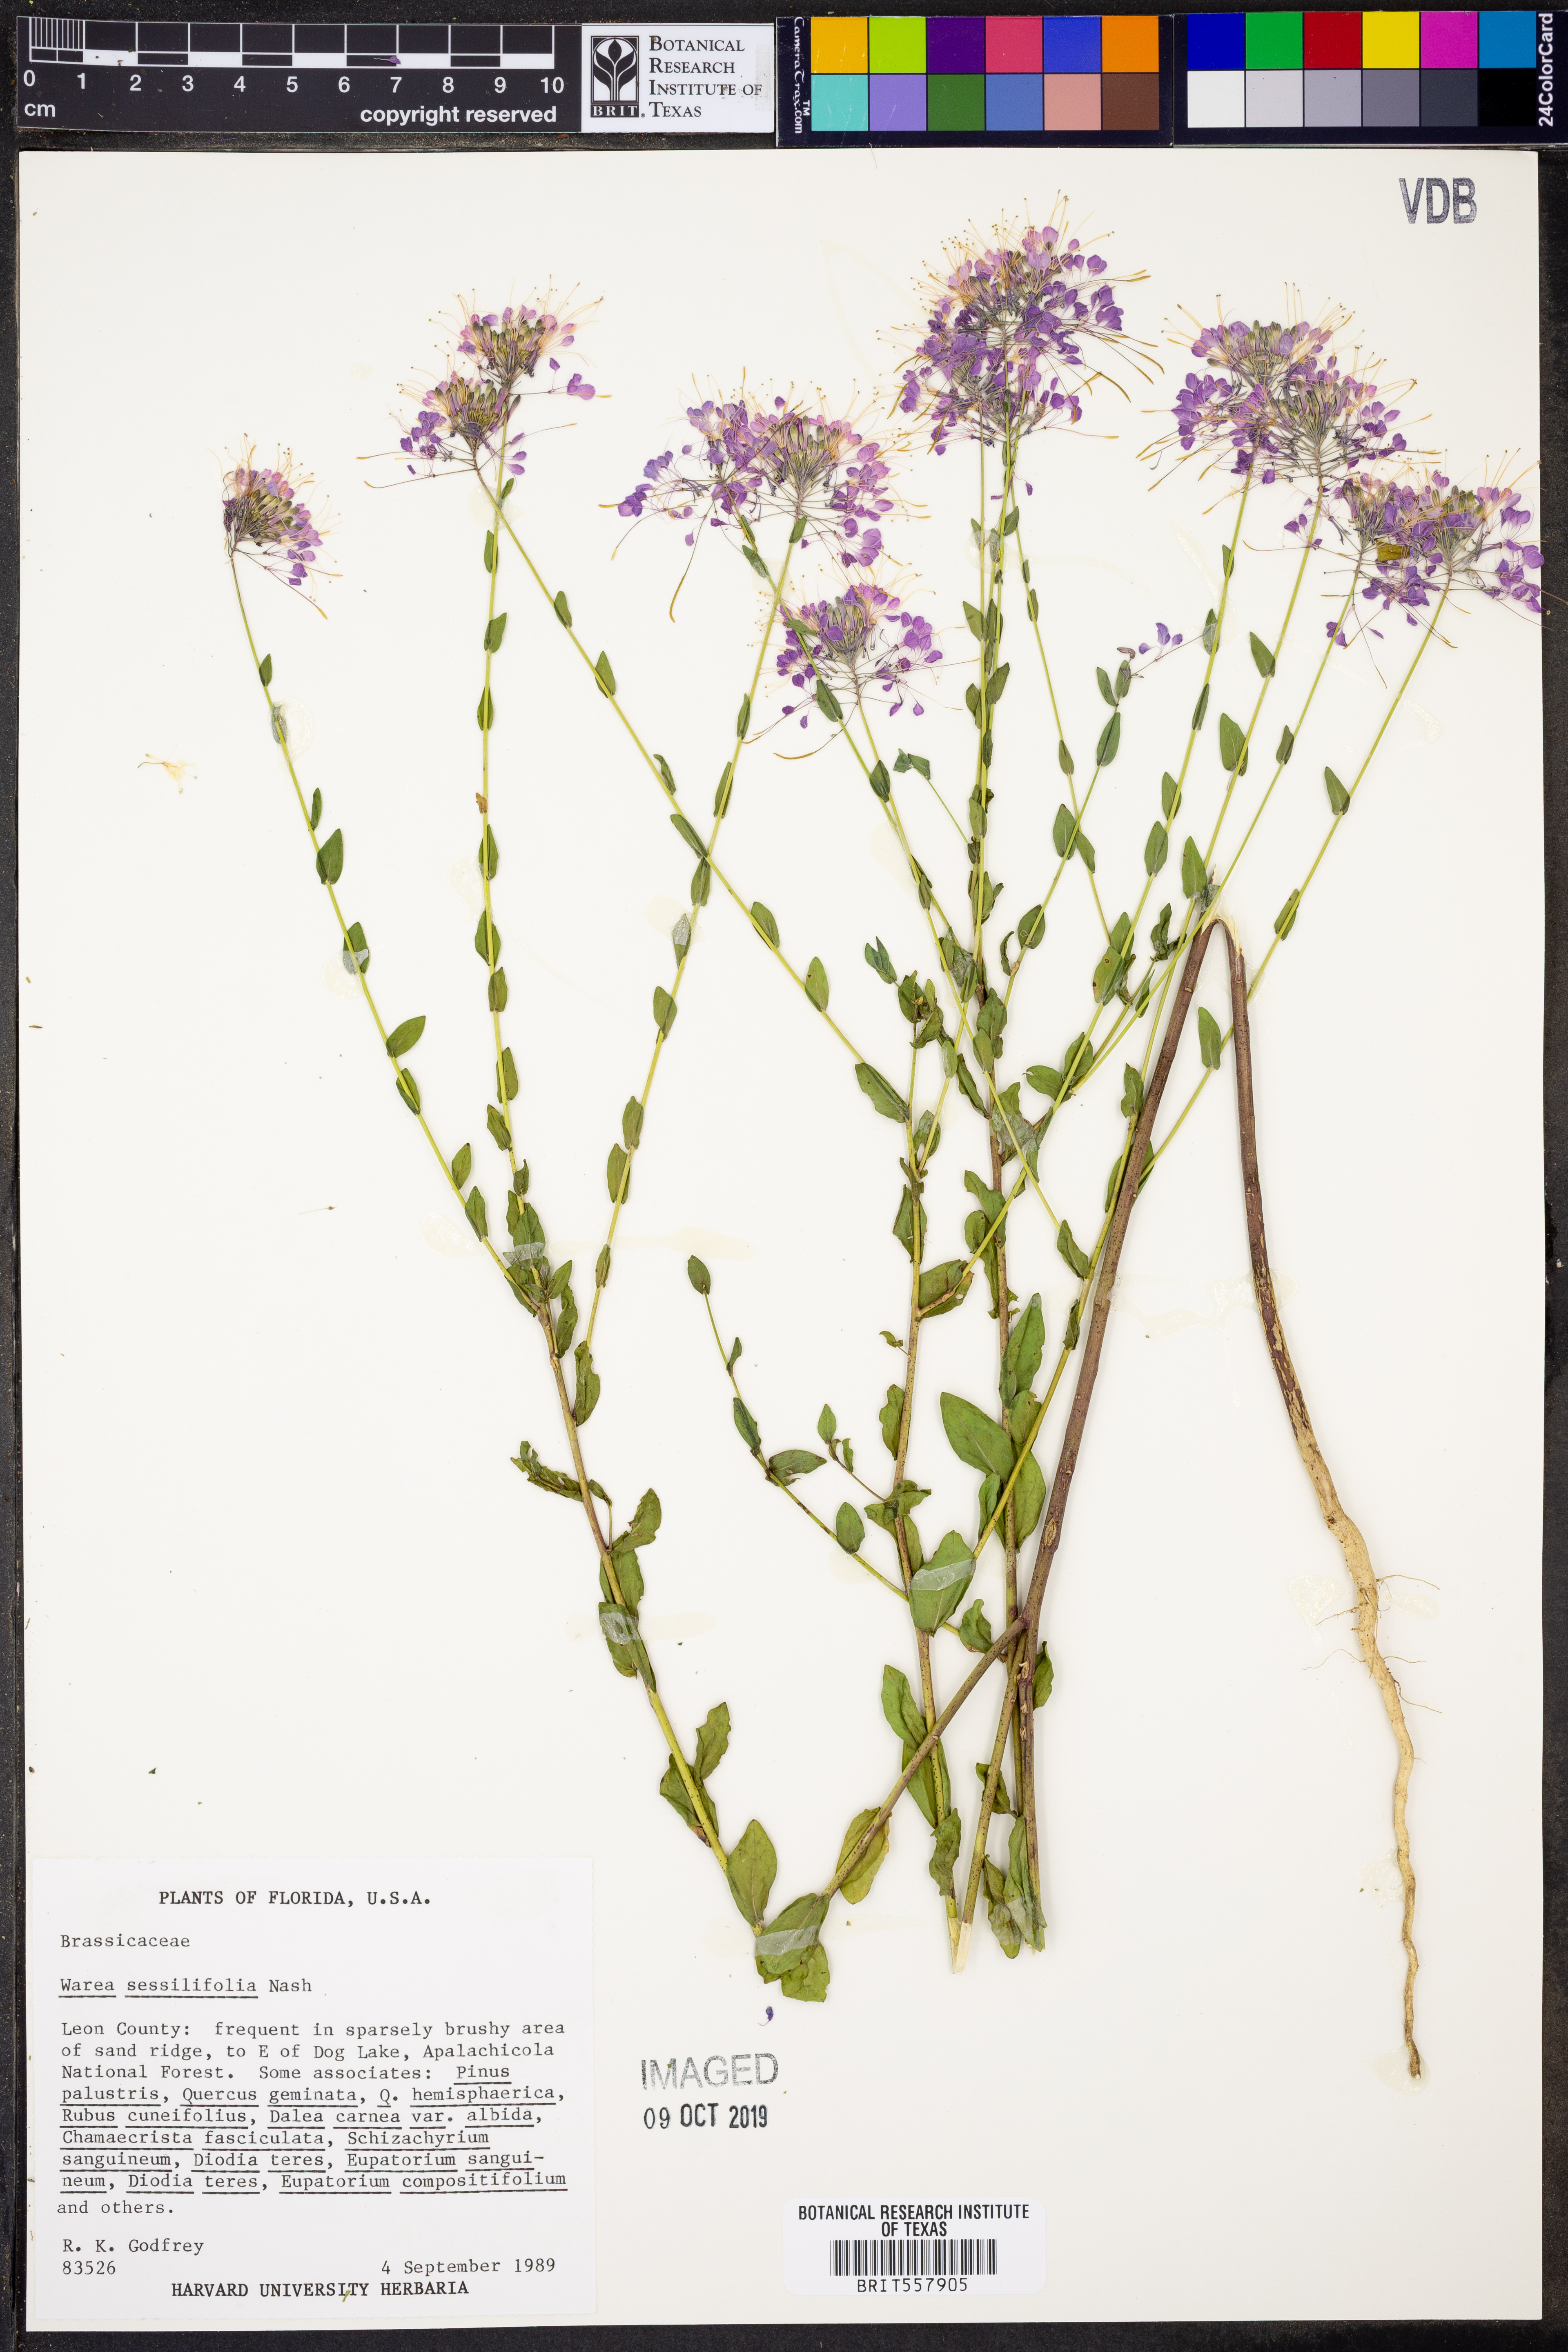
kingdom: Plantae
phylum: Tracheophyta
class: Magnoliopsida
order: Brassicales
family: Brassicaceae
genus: Warea
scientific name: Warea sessilifolia
